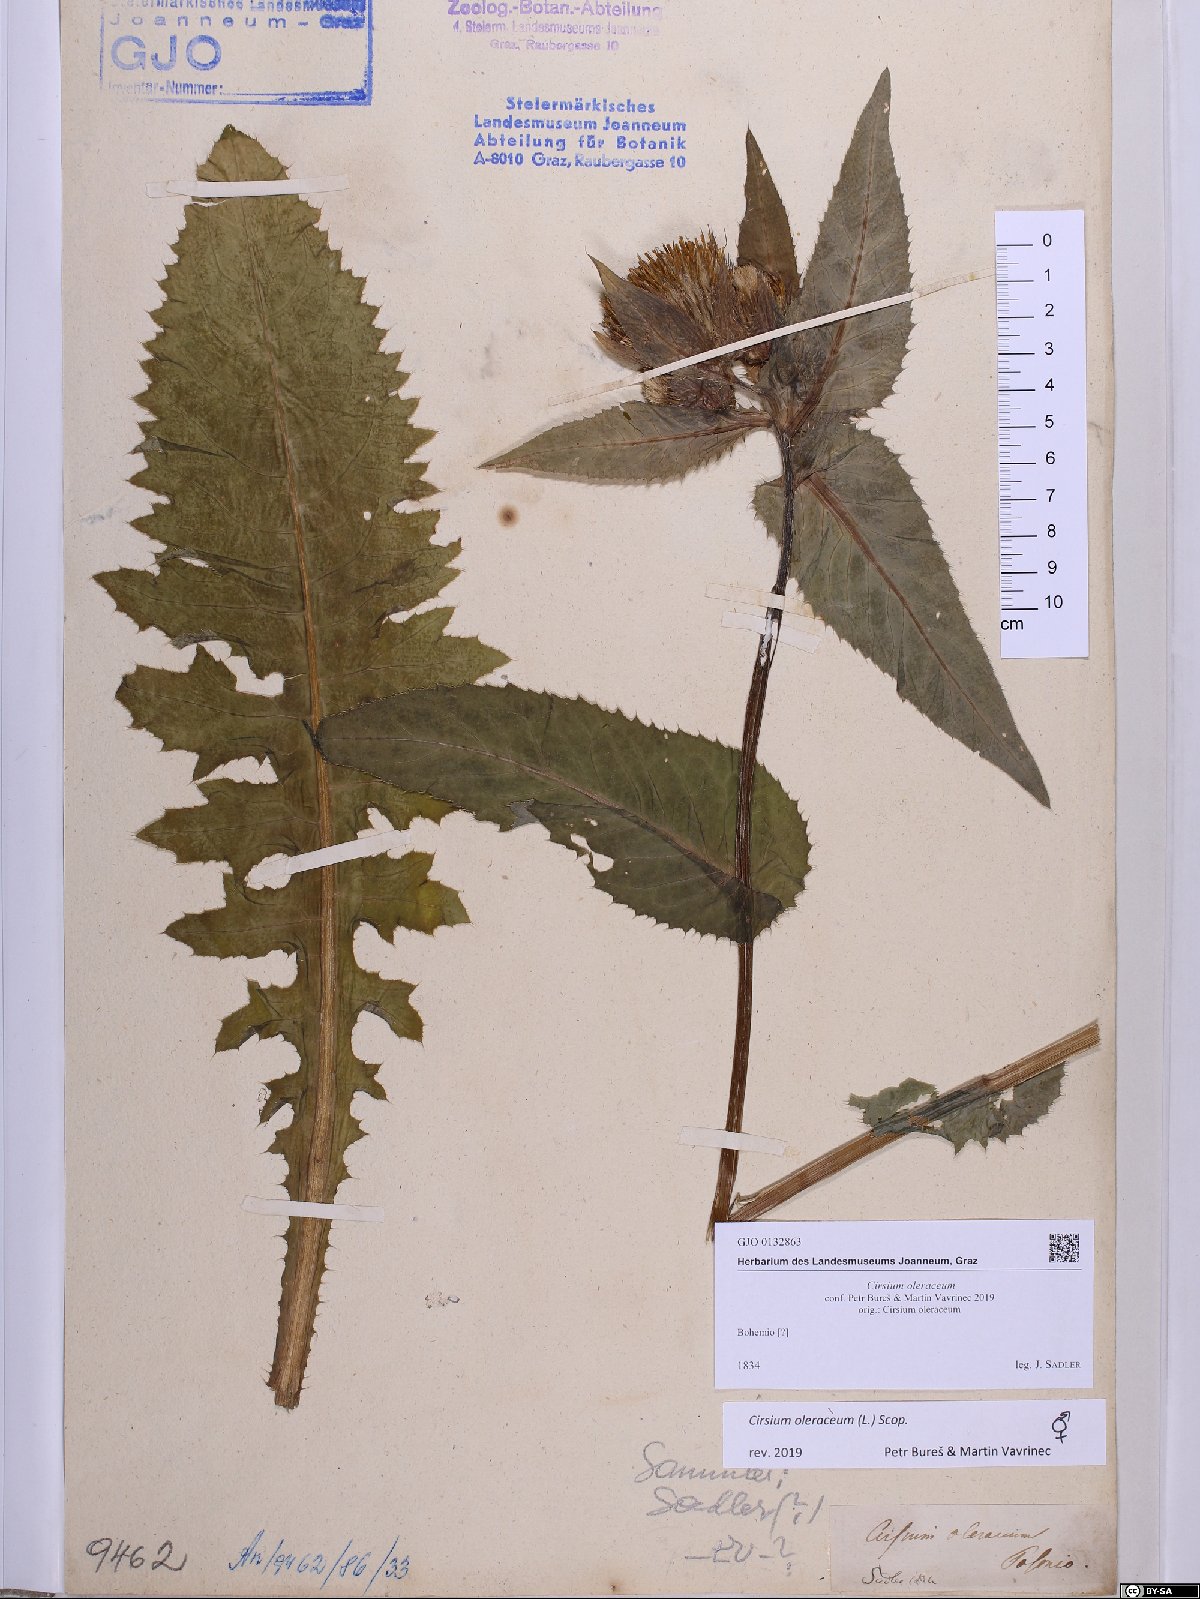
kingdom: Plantae
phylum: Tracheophyta
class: Magnoliopsida
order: Asterales
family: Asteraceae
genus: Cirsium
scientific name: Cirsium oleraceum
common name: Cabbage thistle
